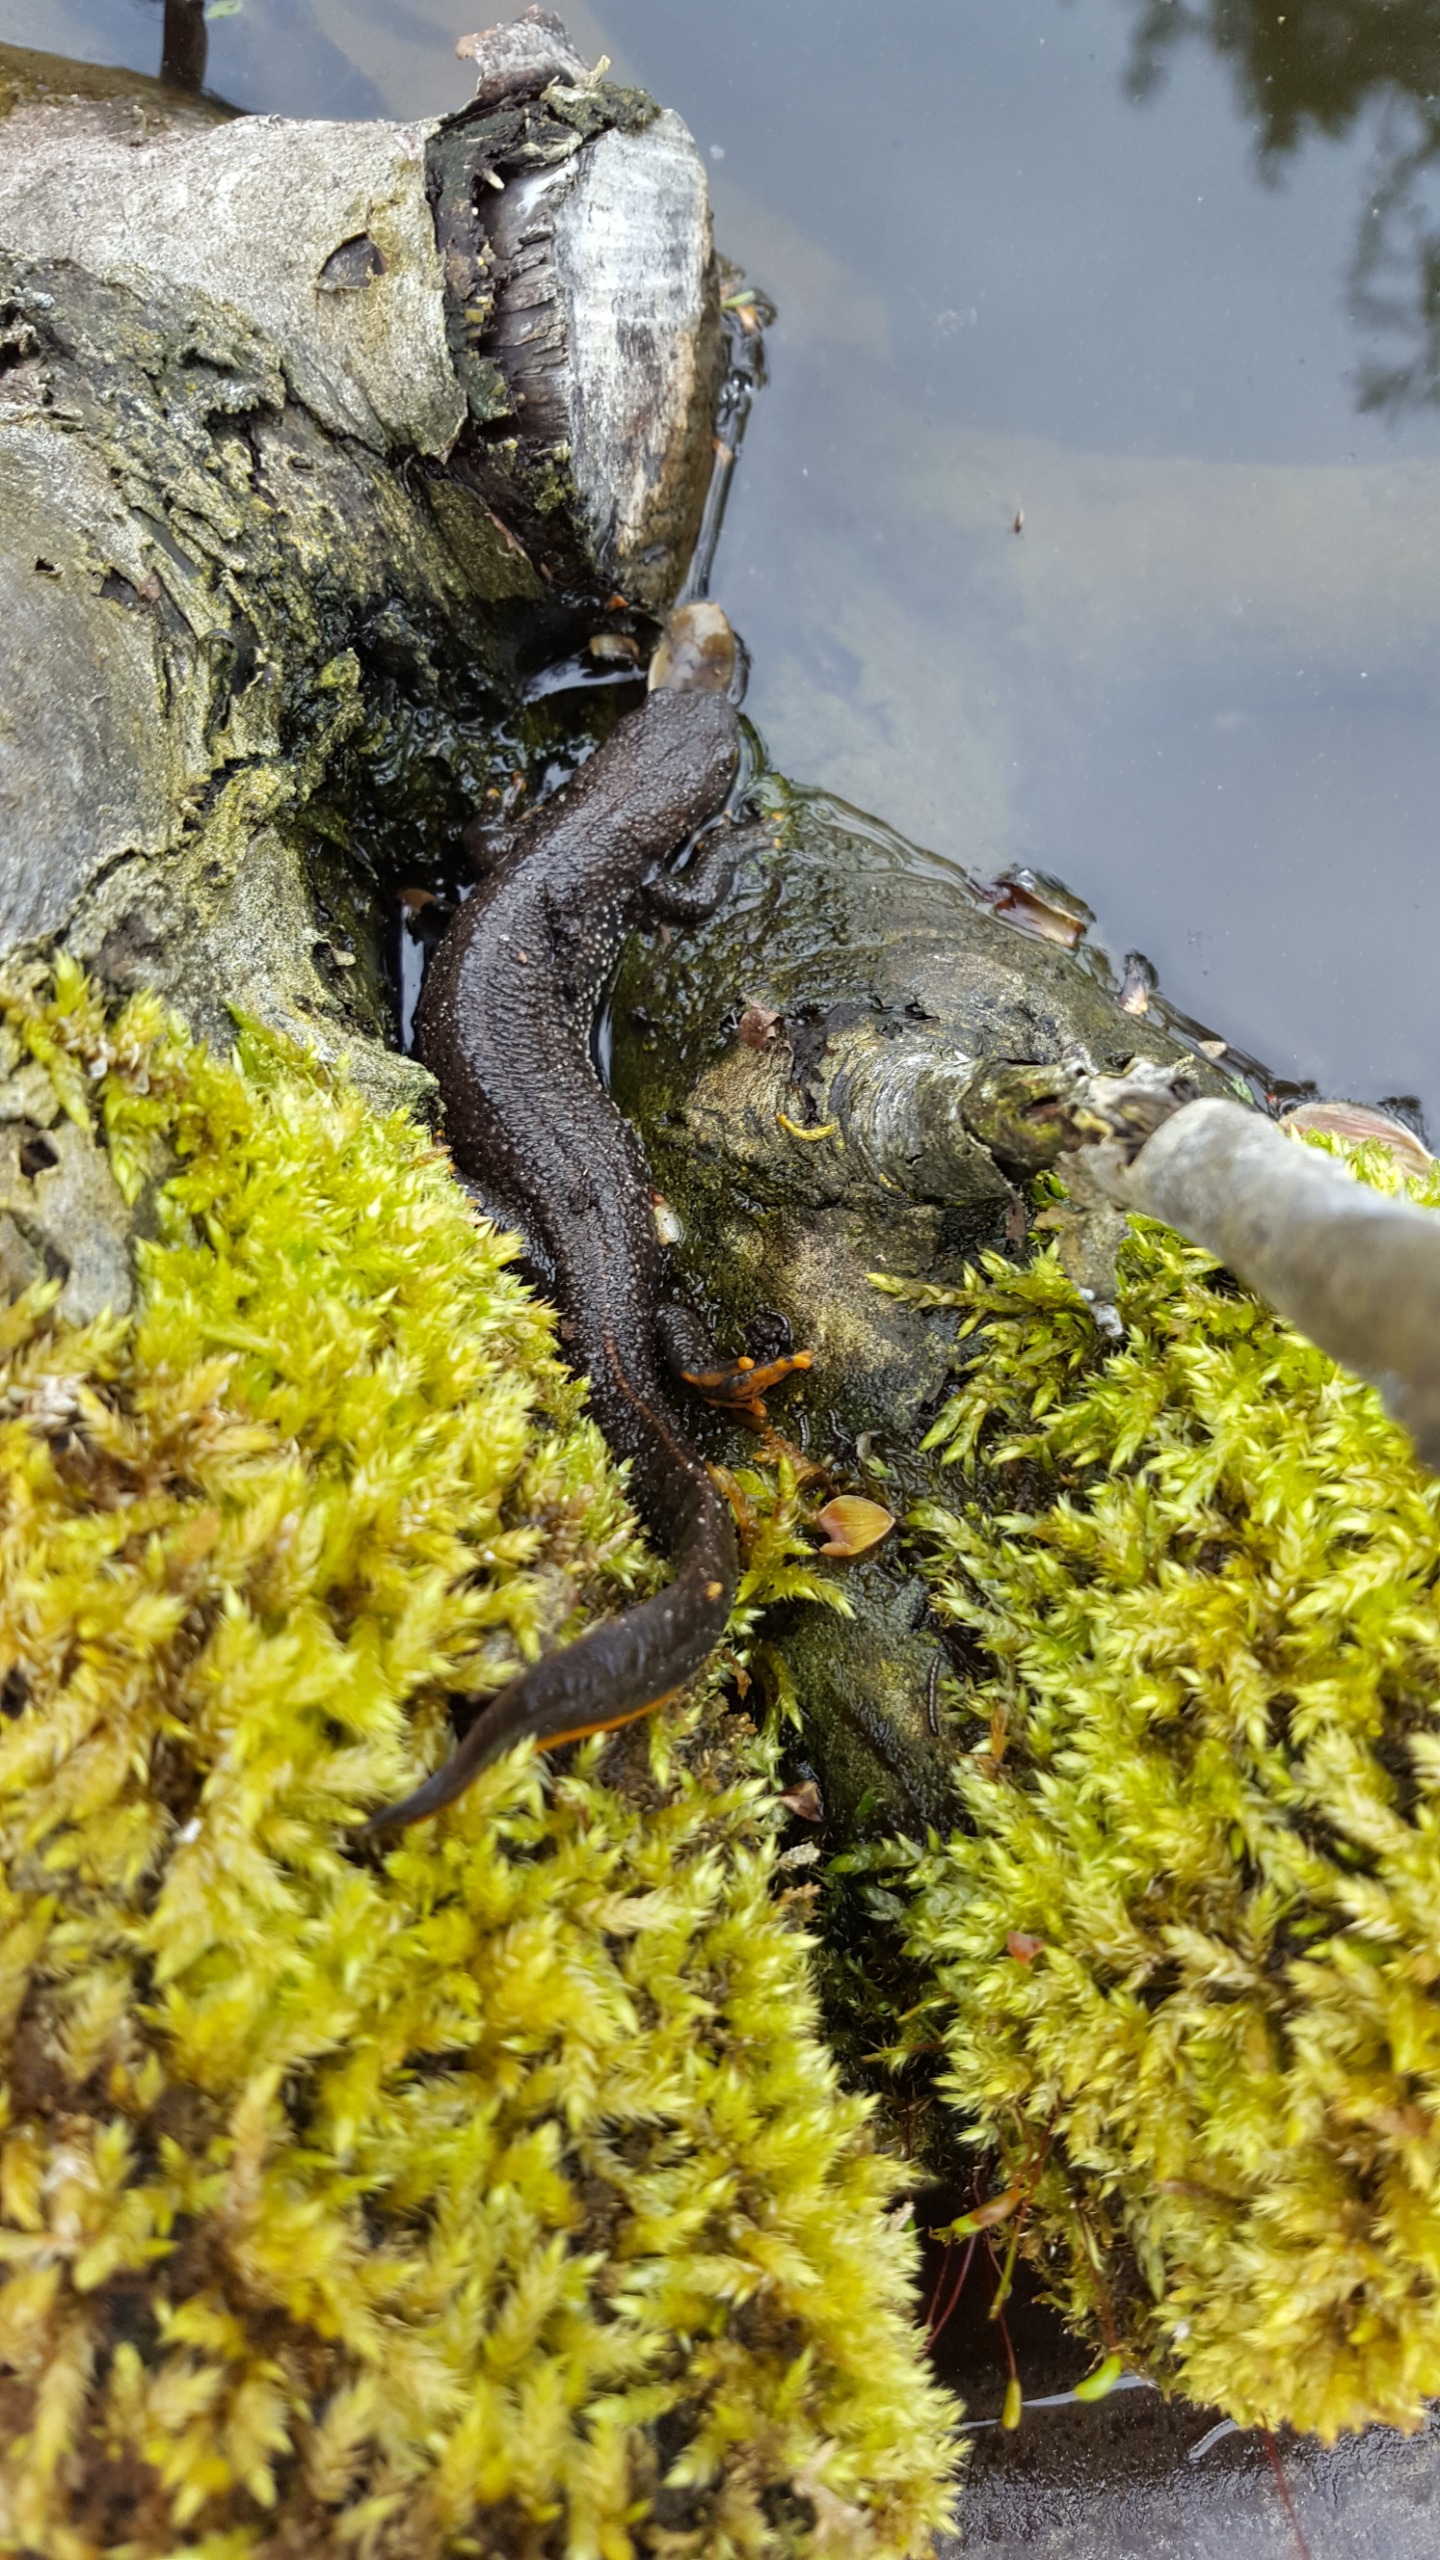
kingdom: Animalia
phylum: Chordata
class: Amphibia
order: Caudata
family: Salamandridae
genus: Triturus
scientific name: Triturus cristatus
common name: Stor vandsalamander
